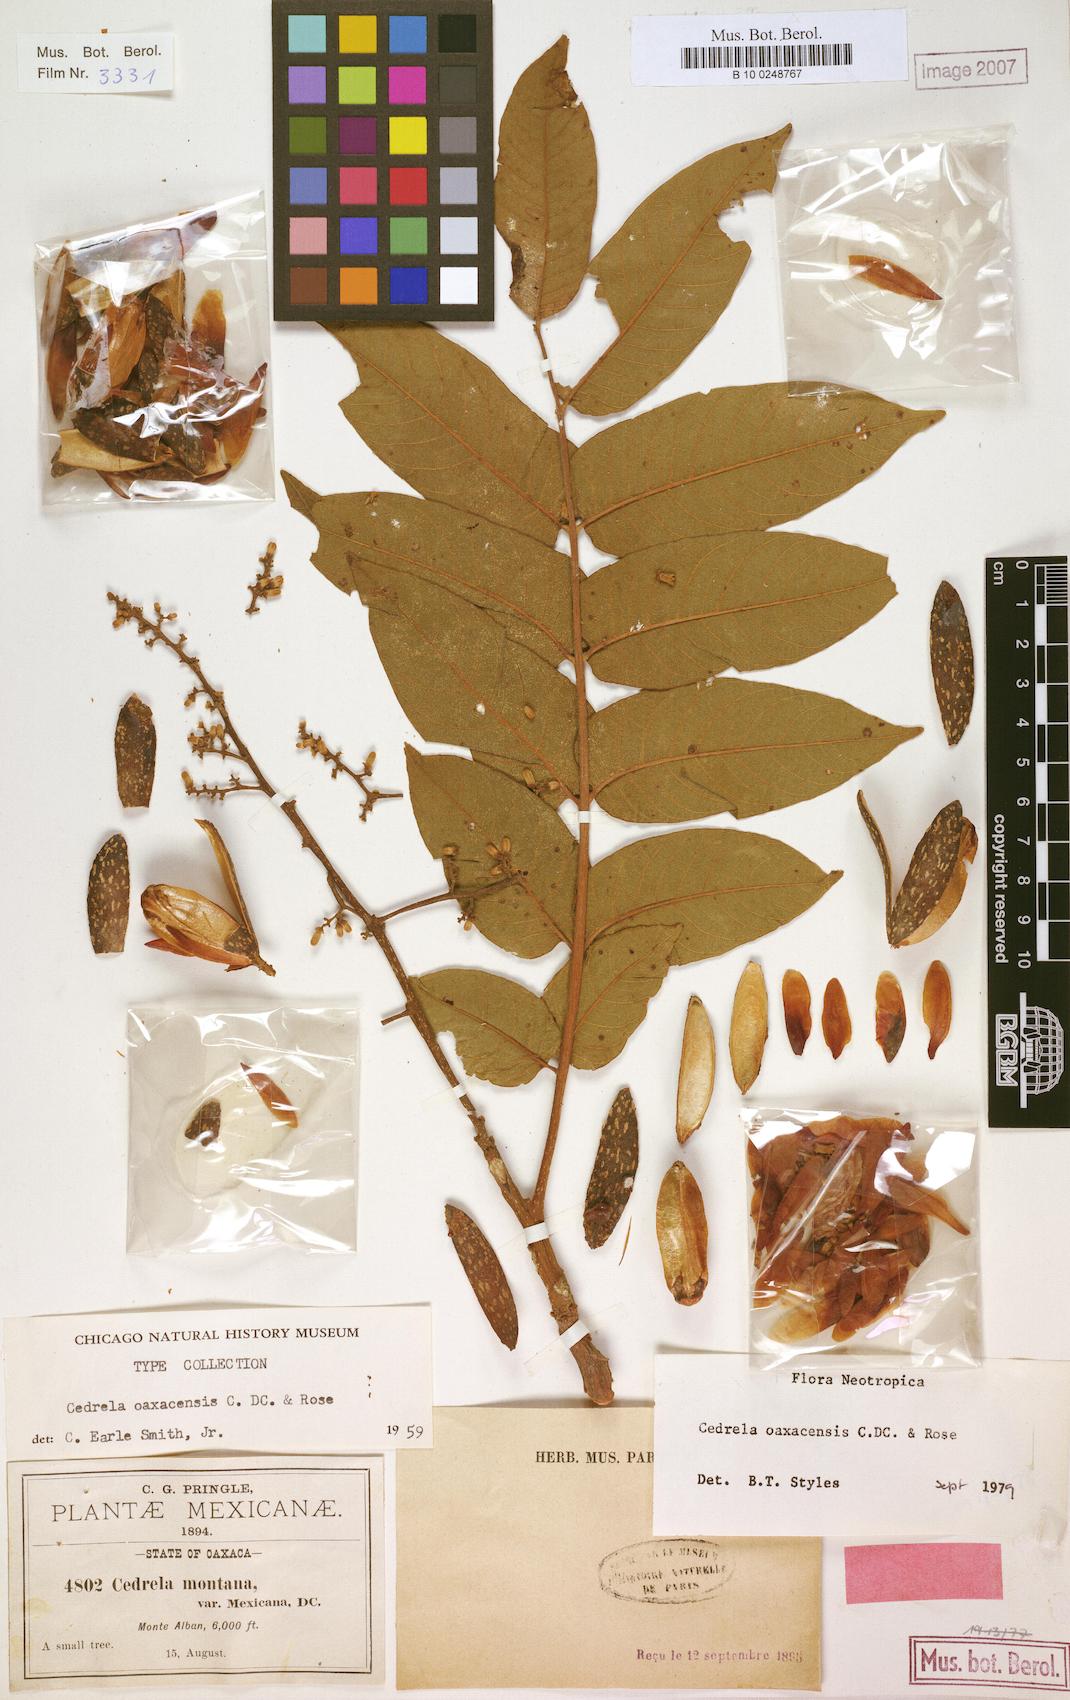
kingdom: Plantae
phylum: Tracheophyta
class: Magnoliopsida
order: Sapindales
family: Meliaceae
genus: Cedrela
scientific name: Cedrela oaxacensis
